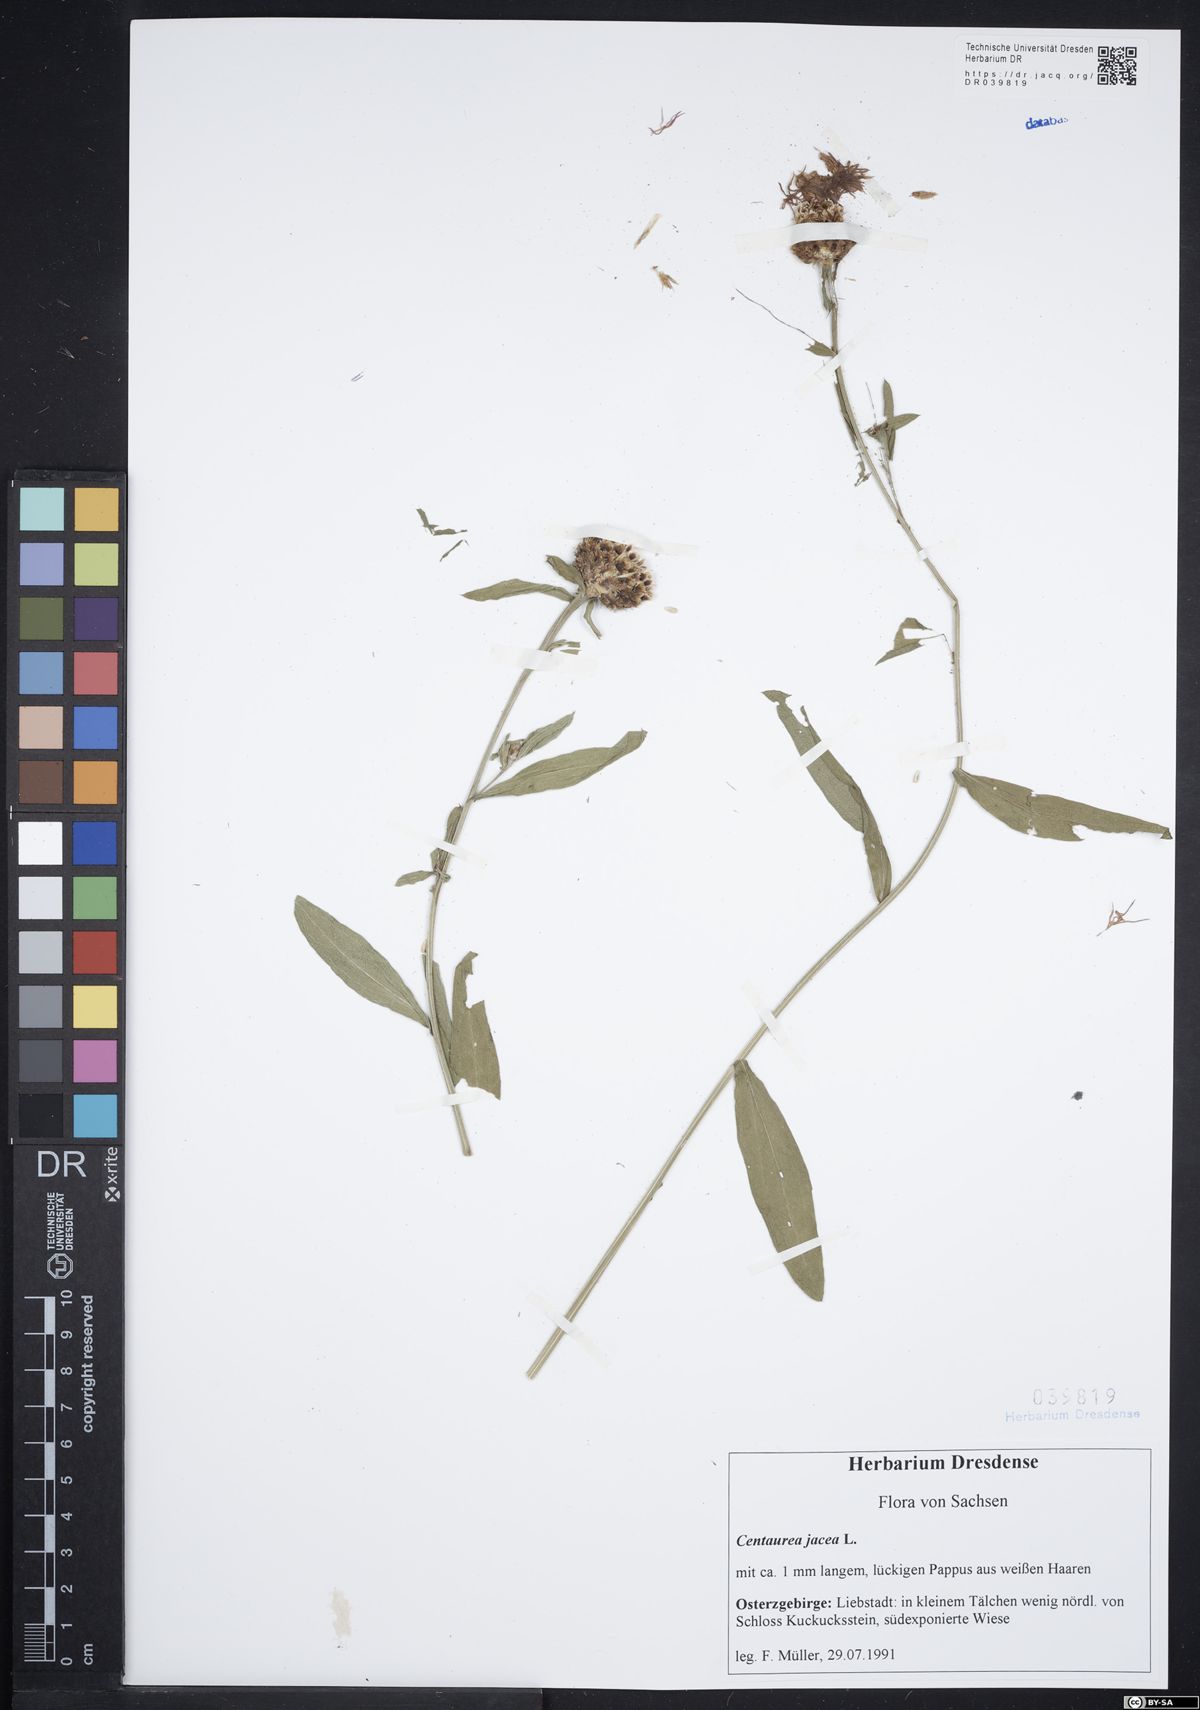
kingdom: Plantae
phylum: Tracheophyta
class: Magnoliopsida
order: Asterales
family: Asteraceae
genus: Centaurea
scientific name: Centaurea jacea
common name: Brown knapweed
